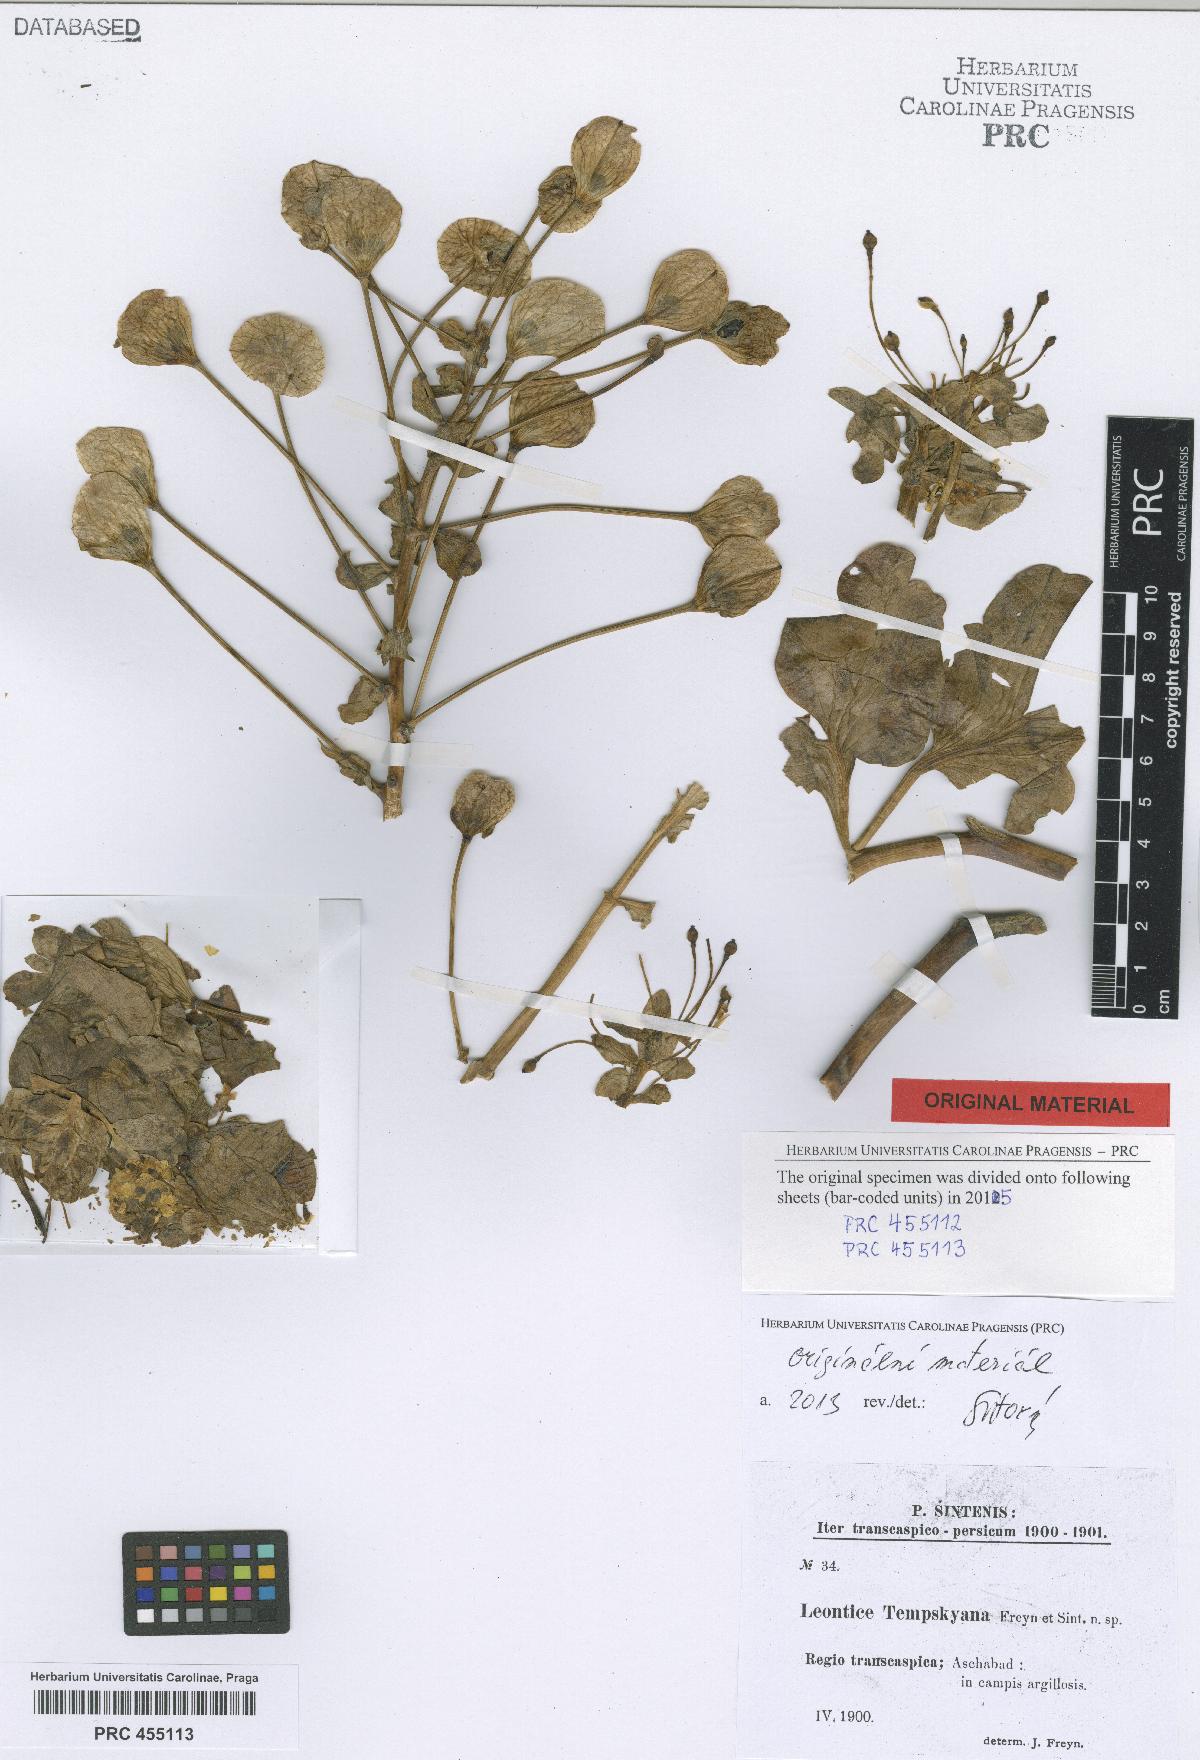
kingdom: Plantae
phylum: Tracheophyta
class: Magnoliopsida
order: Ranunculales
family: Berberidaceae
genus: Leontice
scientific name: Leontice tempskyana
